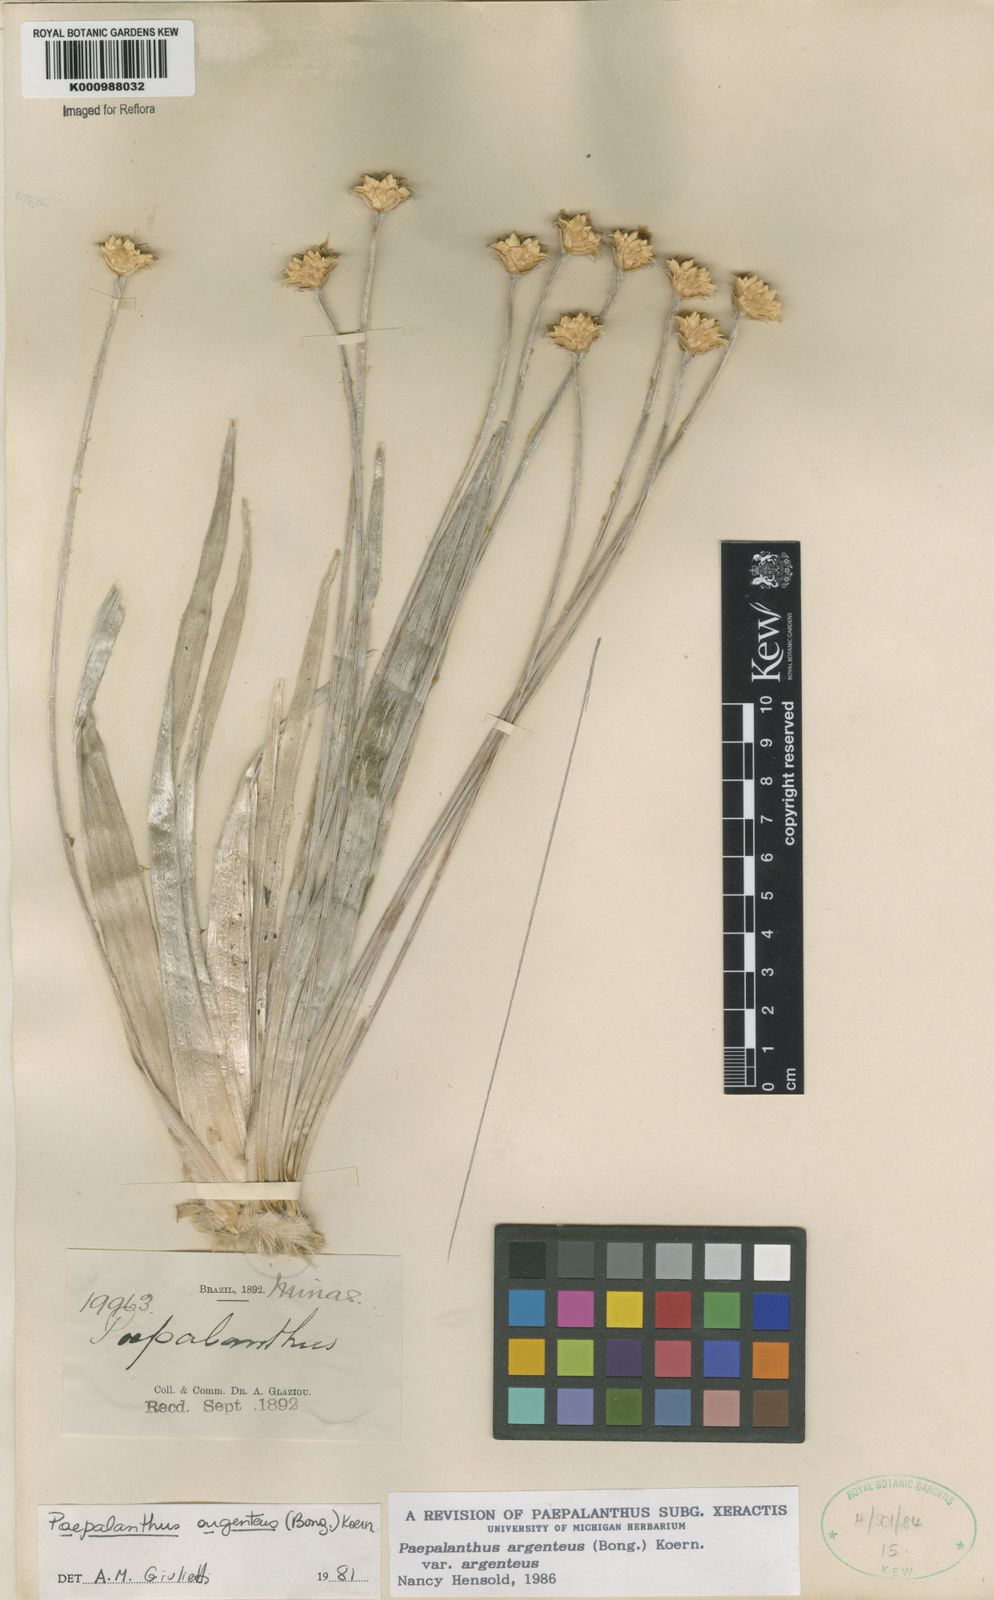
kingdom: Plantae
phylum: Tracheophyta
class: Liliopsida
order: Poales
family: Eriocaulaceae
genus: Paepalanthus
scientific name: Paepalanthus
